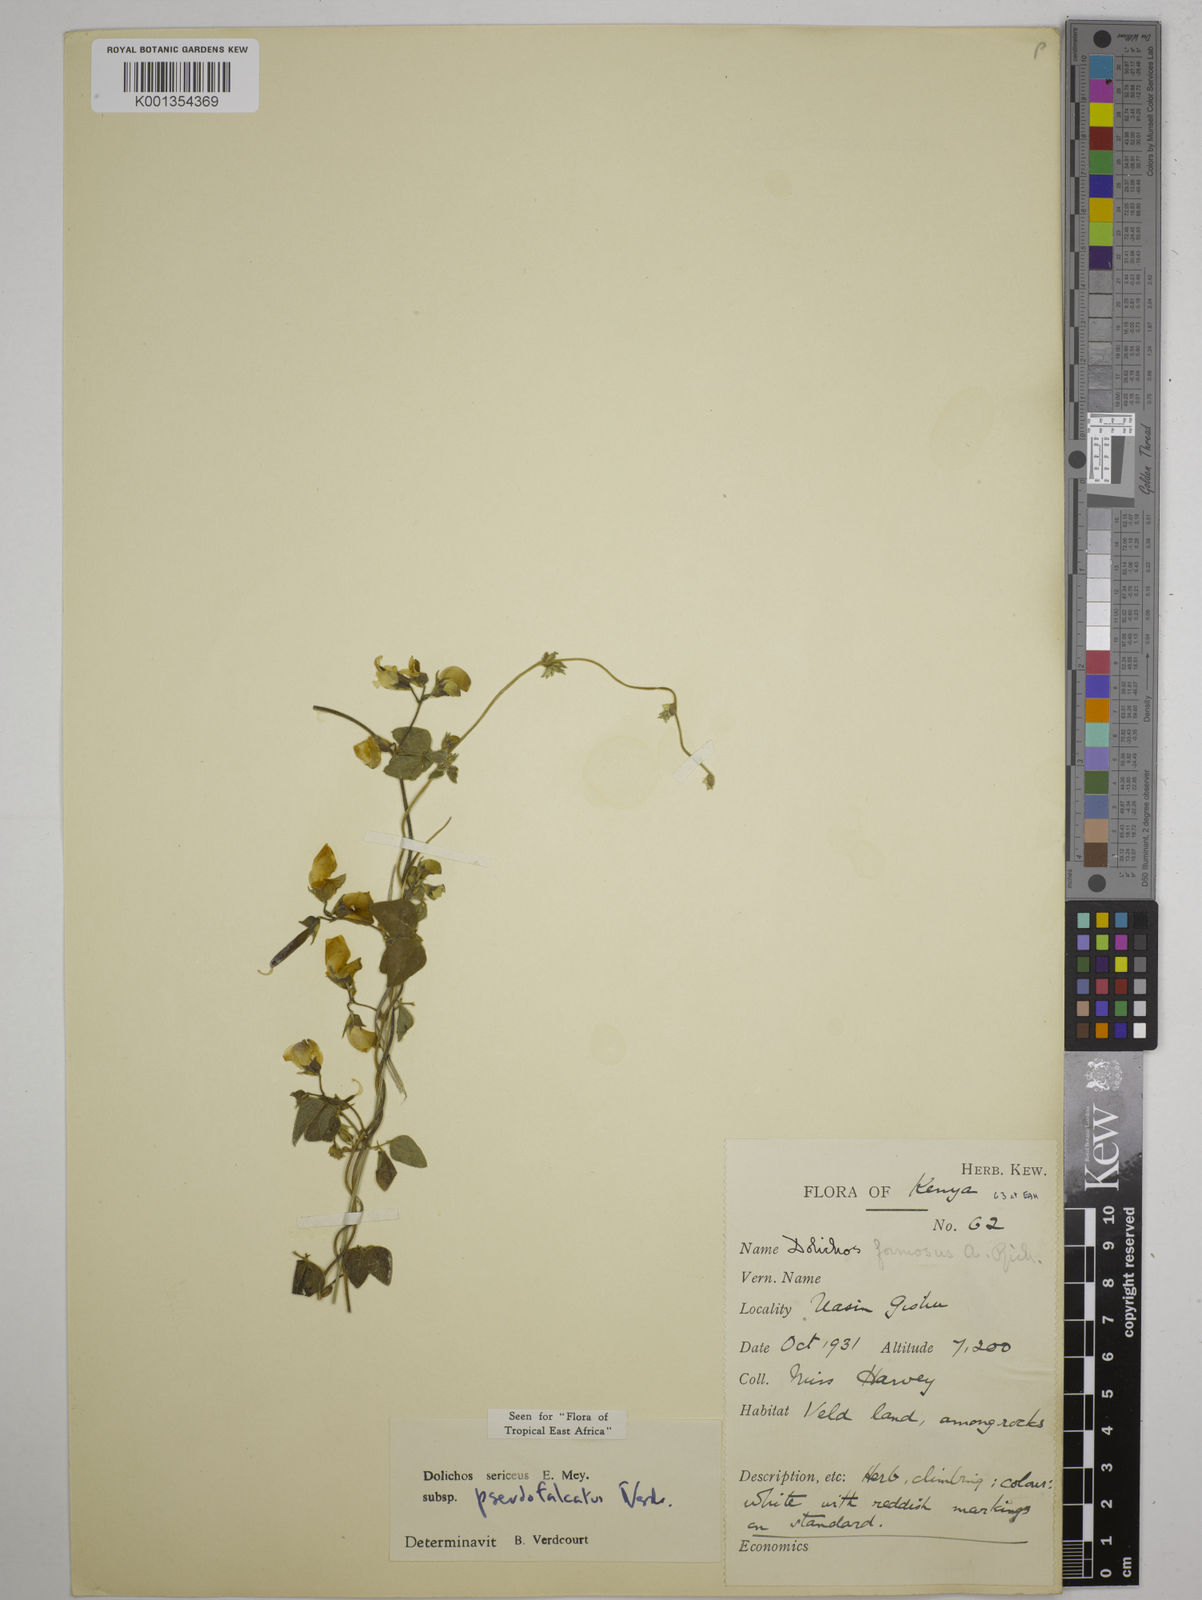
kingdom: Plantae
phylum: Tracheophyta
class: Magnoliopsida
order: Fabales
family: Fabaceae
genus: Dolichos
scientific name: Dolichos
